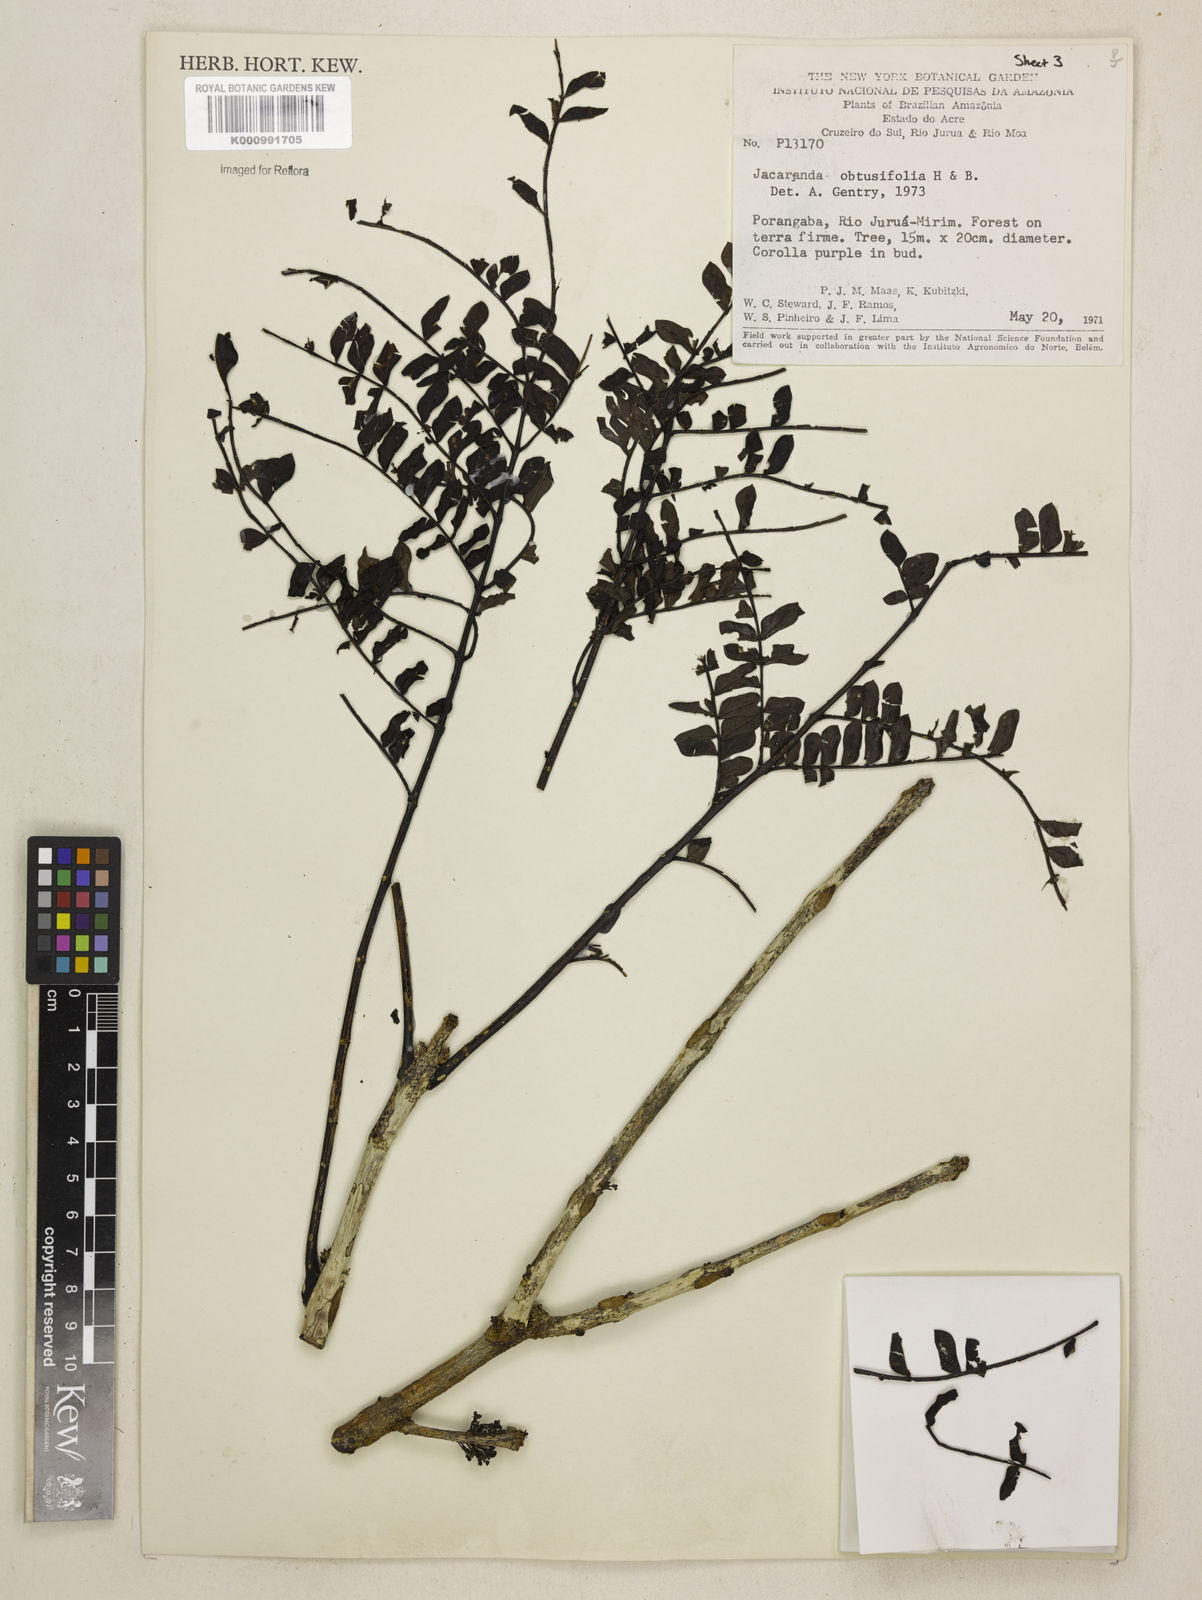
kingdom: Plantae
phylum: Tracheophyta
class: Magnoliopsida
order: Lamiales
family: Bignoniaceae
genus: Jacaranda
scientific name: Jacaranda obtusifolia
